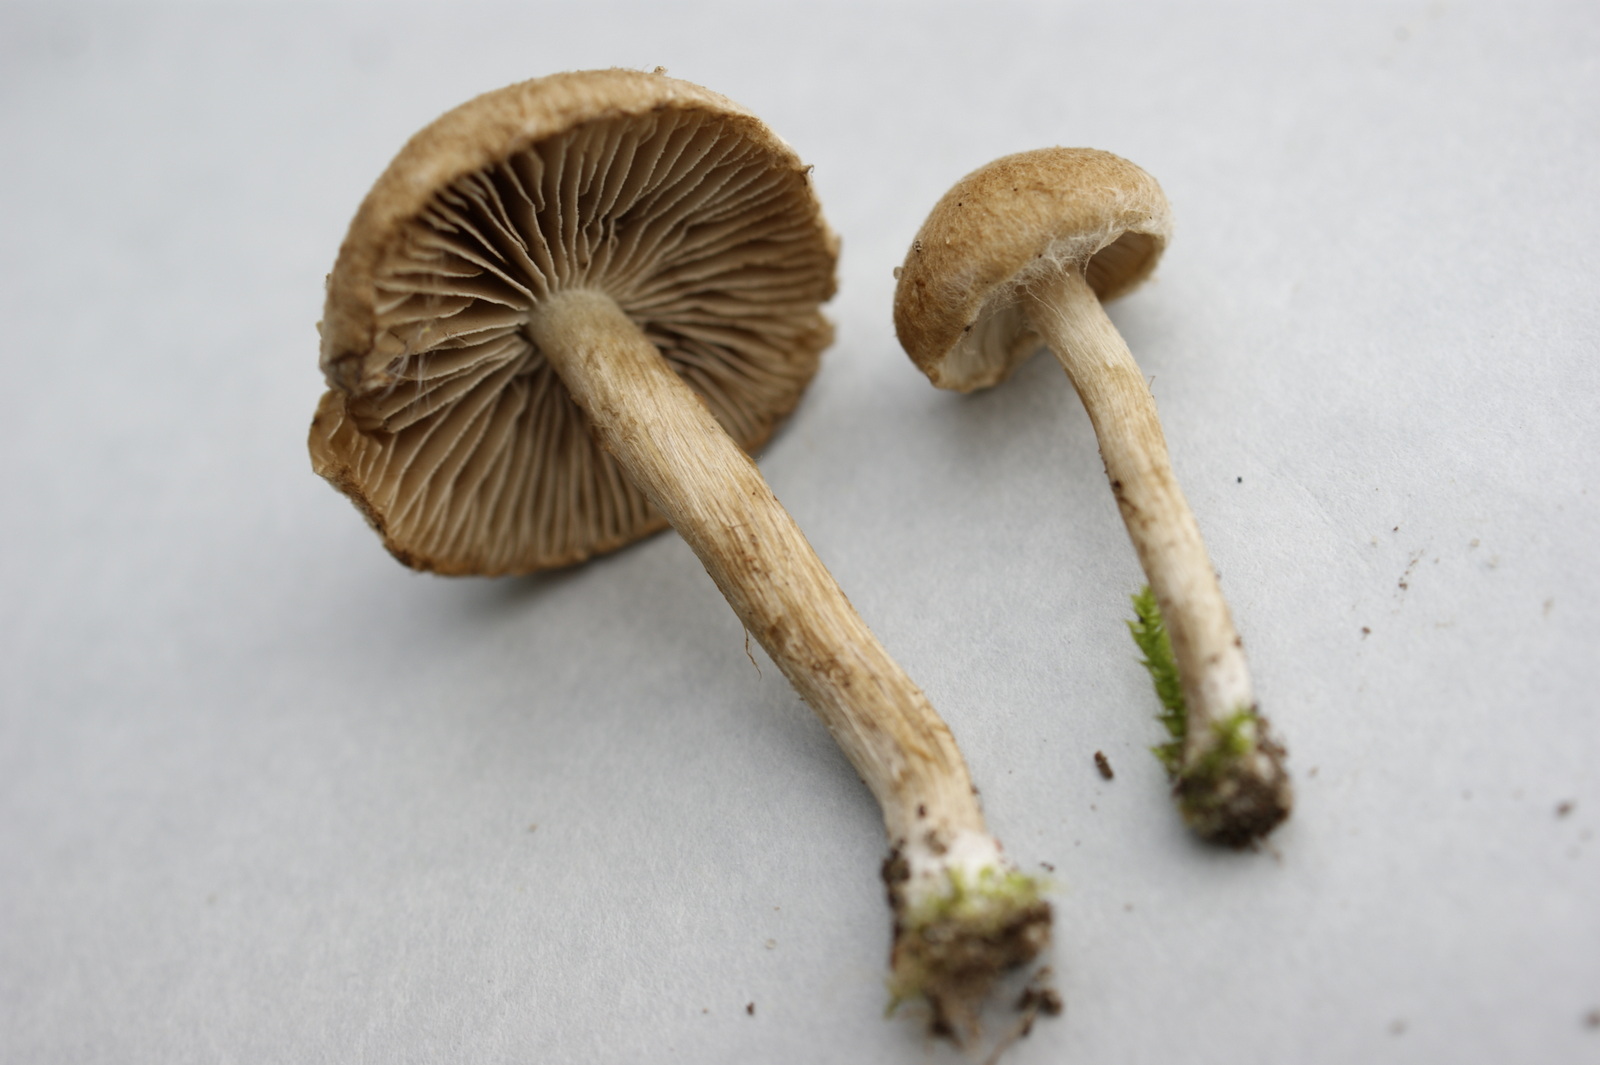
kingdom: Fungi
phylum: Basidiomycota
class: Agaricomycetes
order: Agaricales
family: Inocybaceae
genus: Inocybe
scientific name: Inocybe dulcamara
